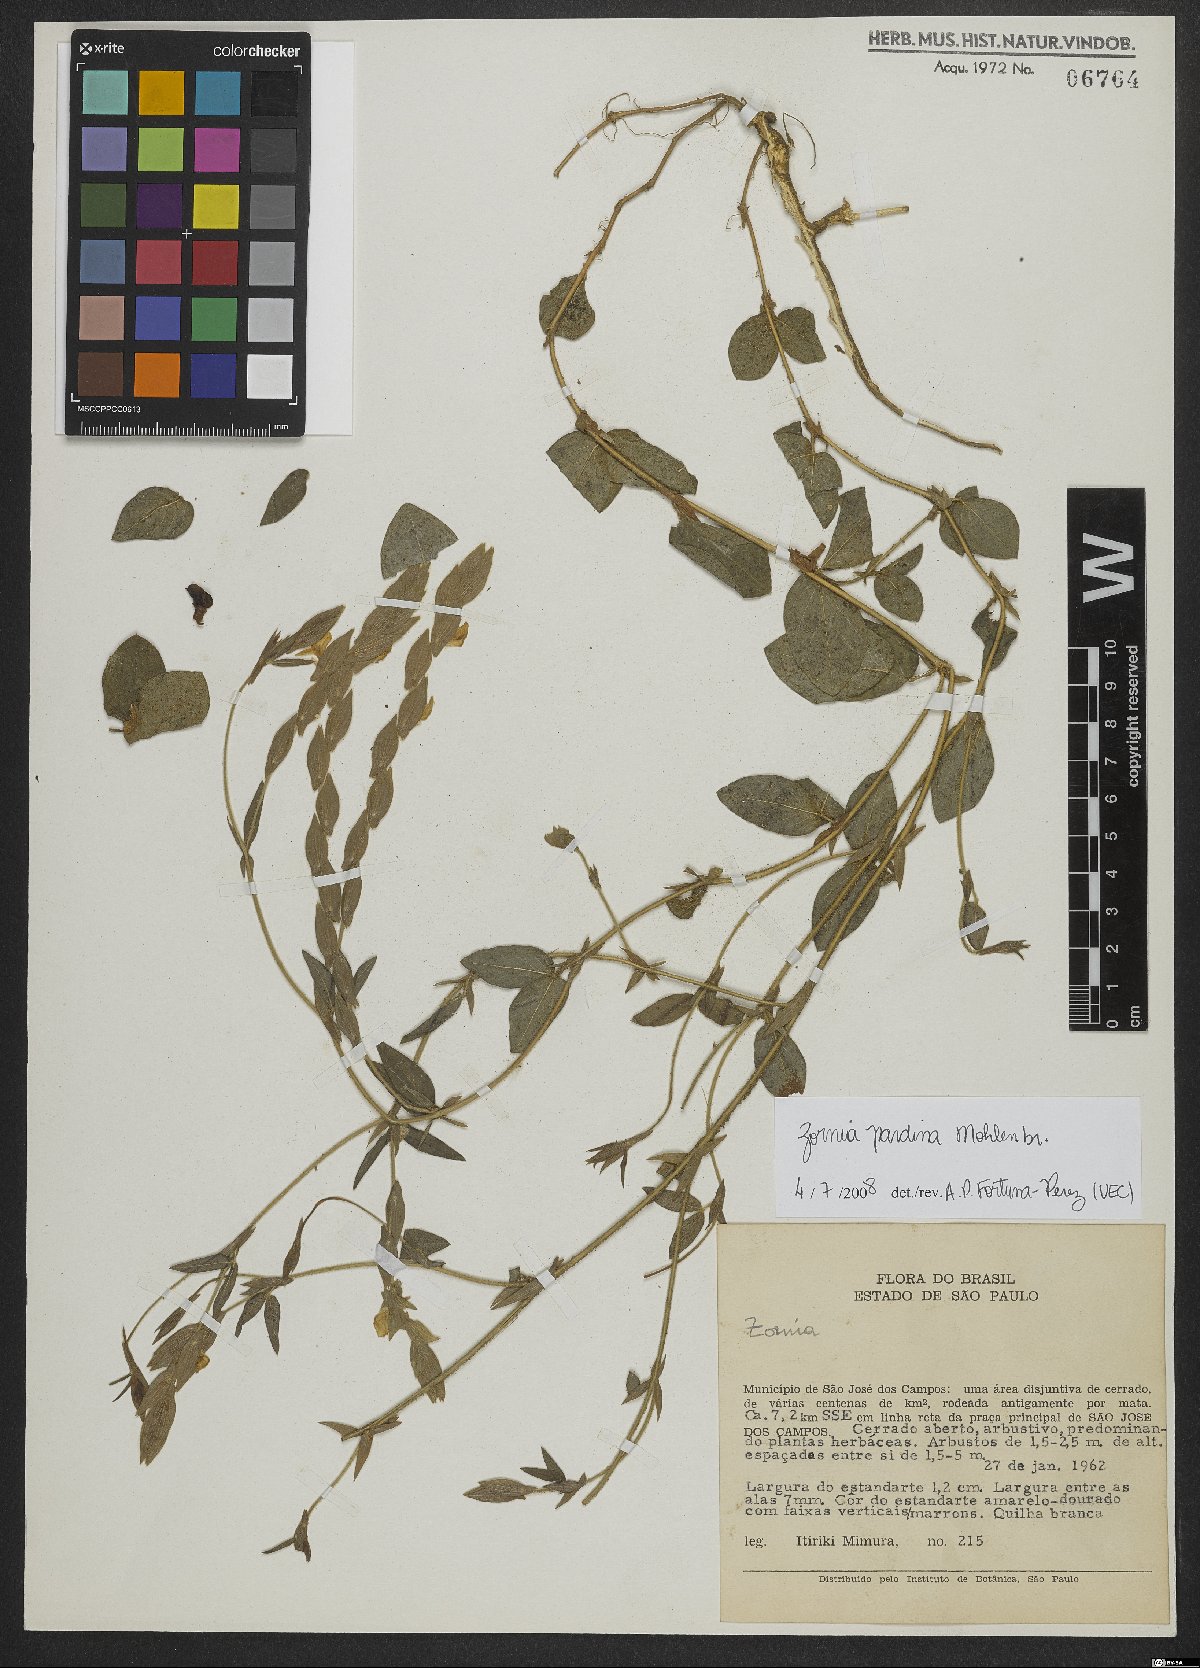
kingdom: Plantae
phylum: Tracheophyta
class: Magnoliopsida
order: Fabales
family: Fabaceae
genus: Zornia
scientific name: Zornia pardina
